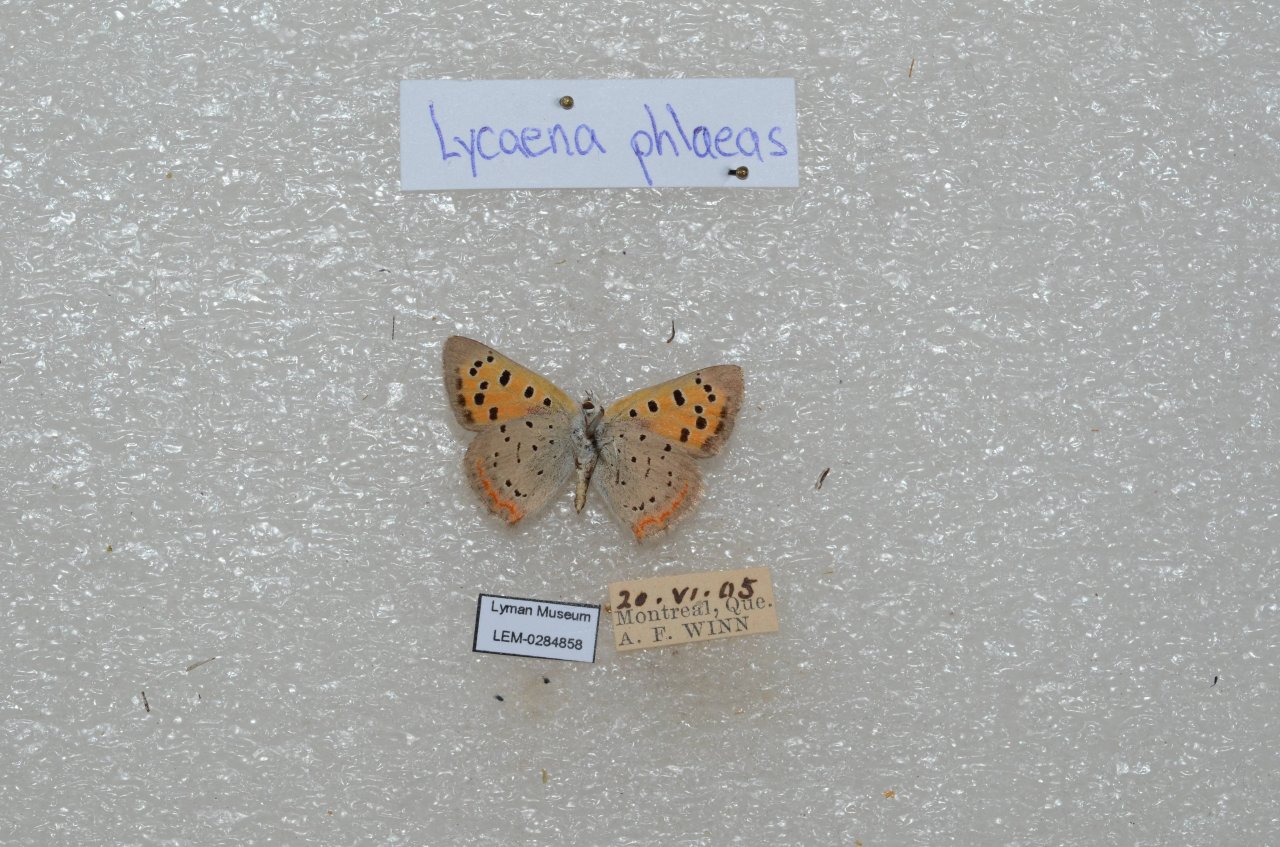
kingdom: Animalia
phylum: Arthropoda
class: Insecta
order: Lepidoptera
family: Lycaenidae
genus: Lycaena
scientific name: Lycaena phlaeas
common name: American Copper
